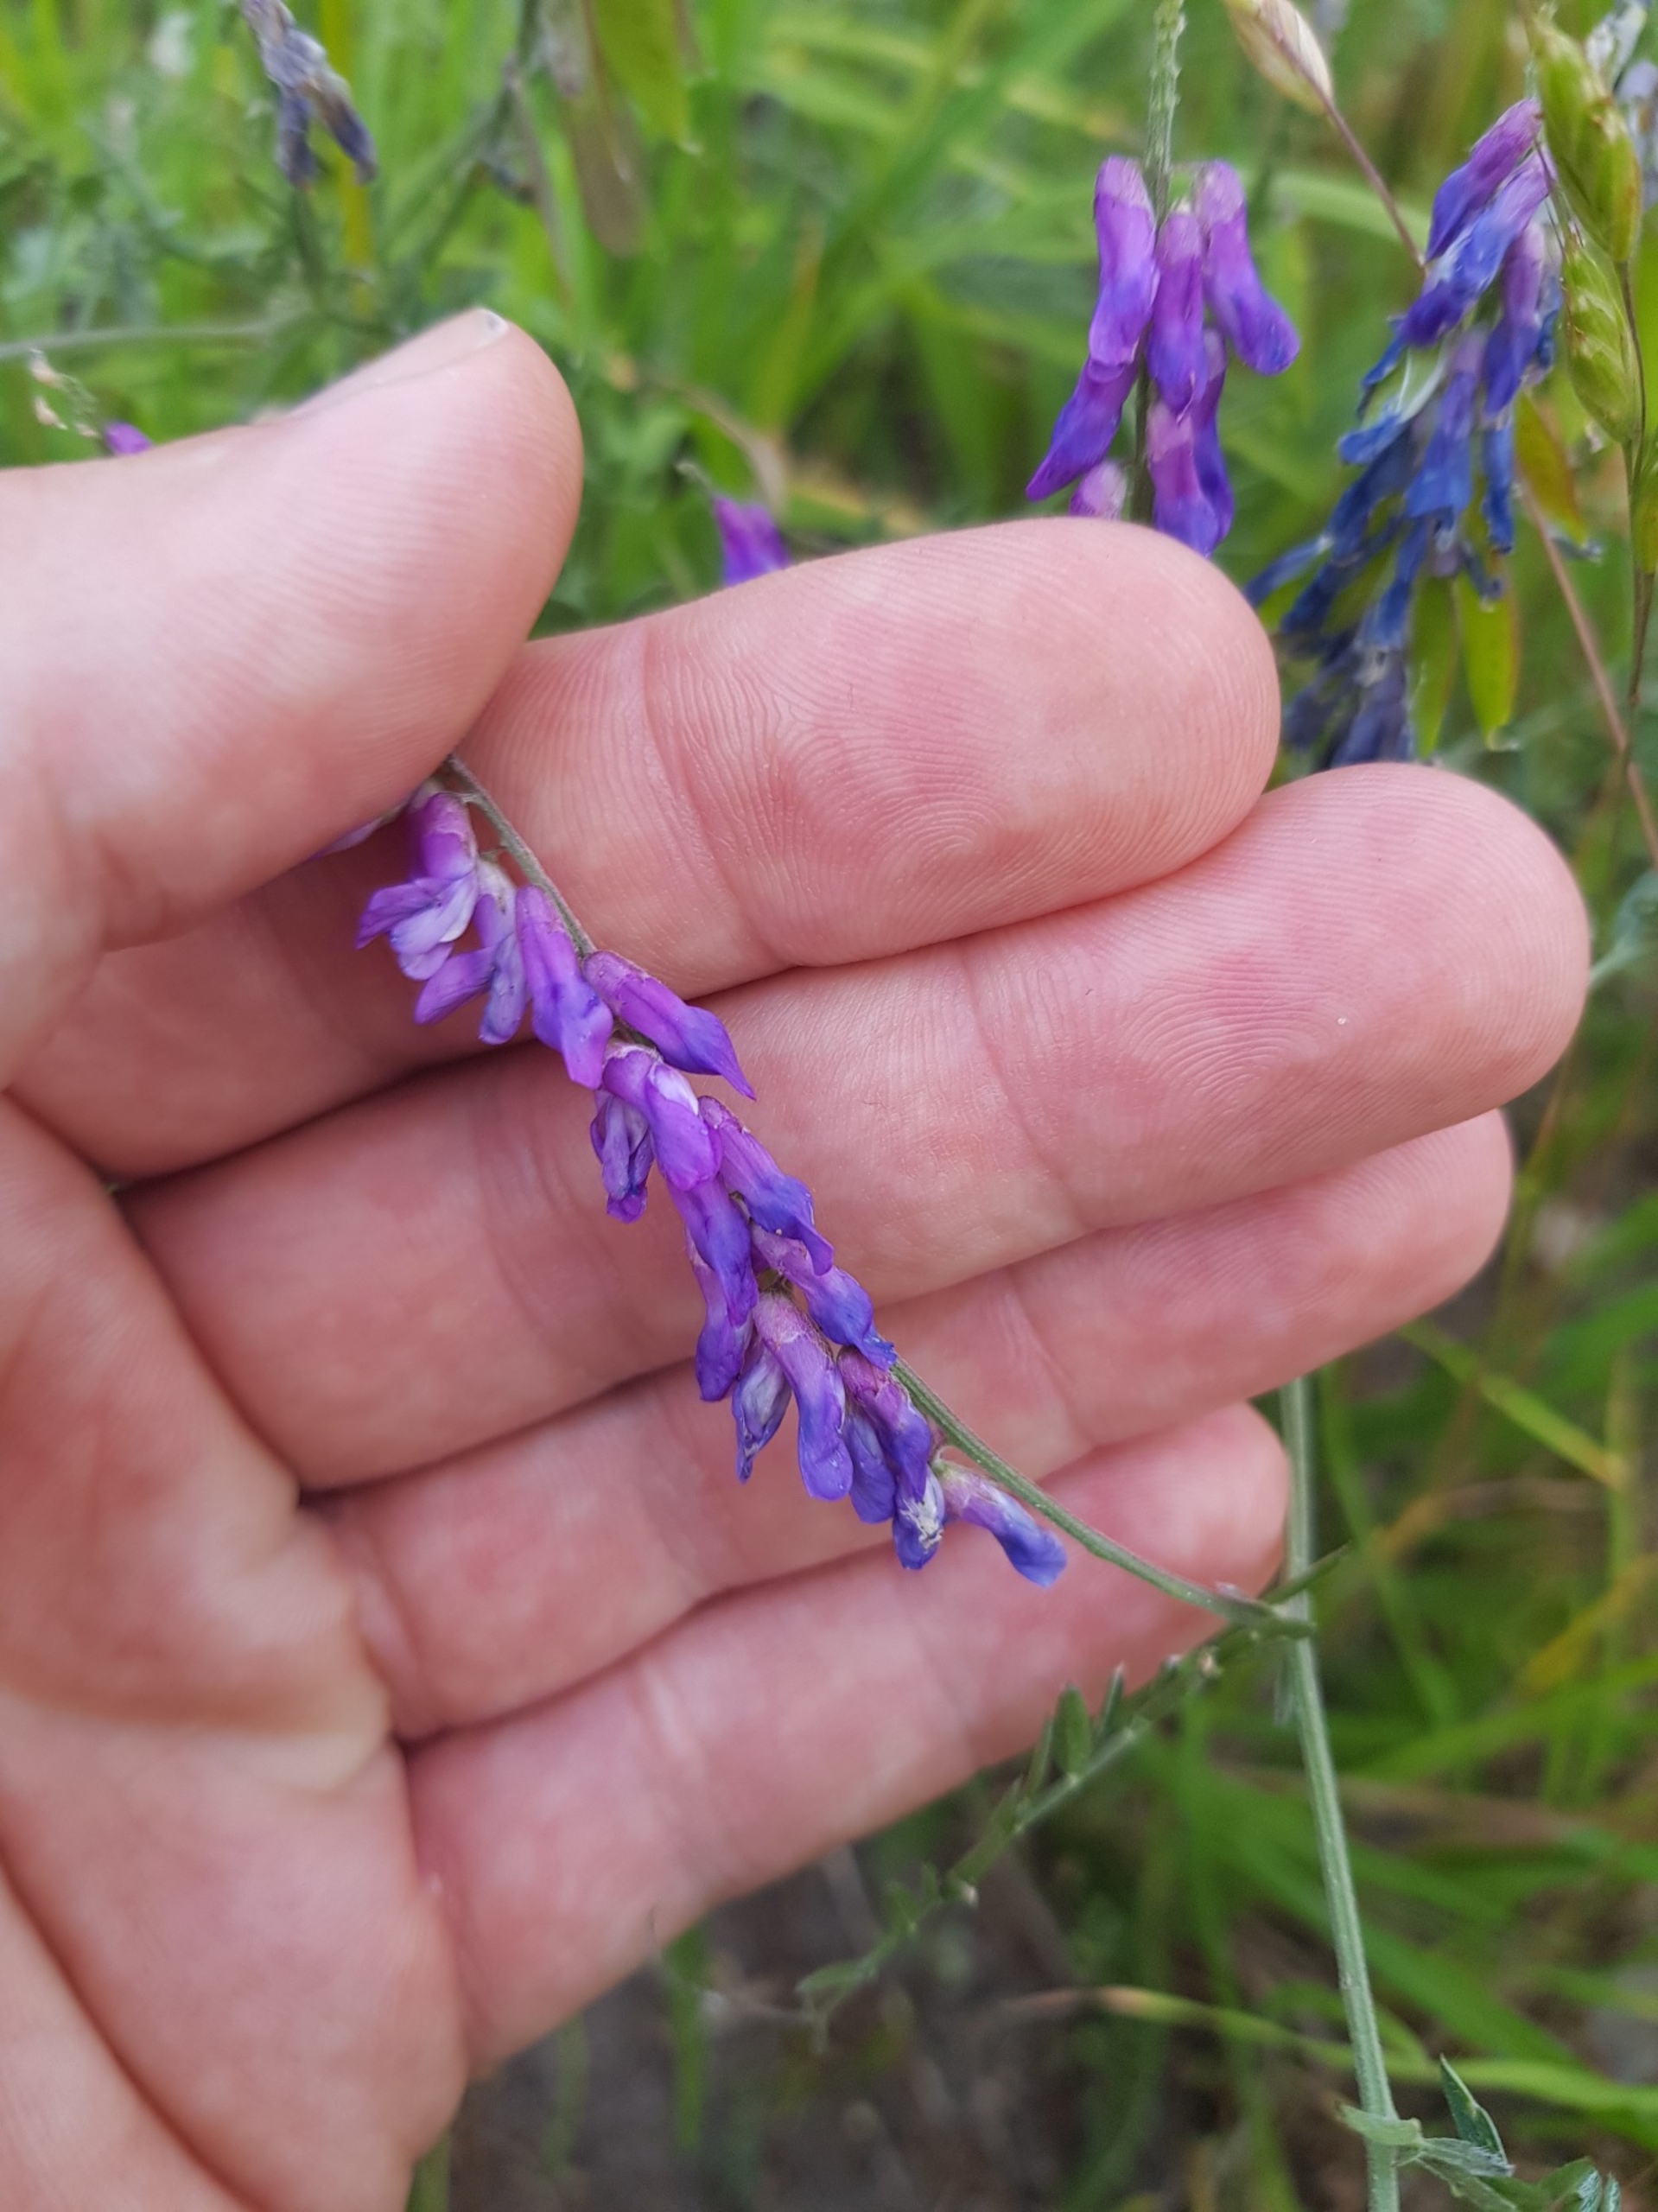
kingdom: Plantae
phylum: Tracheophyta
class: Magnoliopsida
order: Fabales
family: Fabaceae
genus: Vicia
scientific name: Vicia cracca
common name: Muse-vikke
